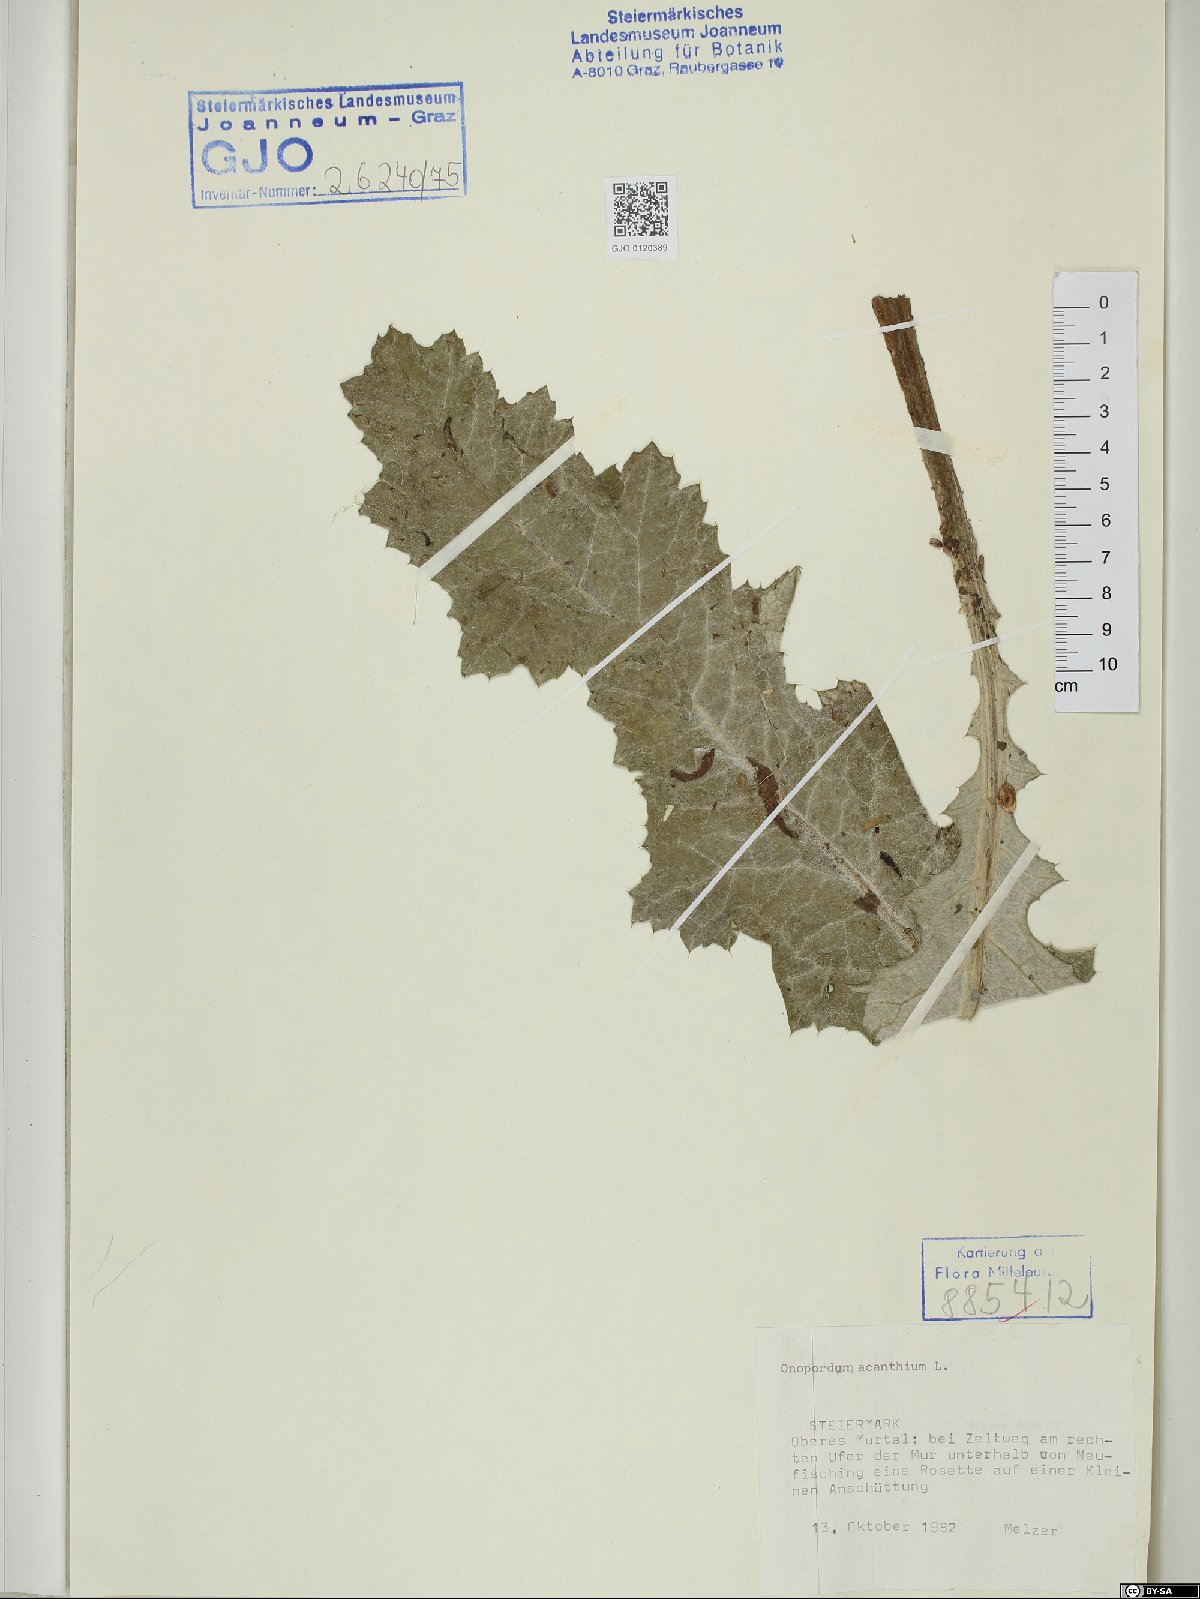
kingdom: Plantae
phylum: Tracheophyta
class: Magnoliopsida
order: Asterales
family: Asteraceae
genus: Onopordum
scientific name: Onopordum acanthium
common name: Scotch thistle
